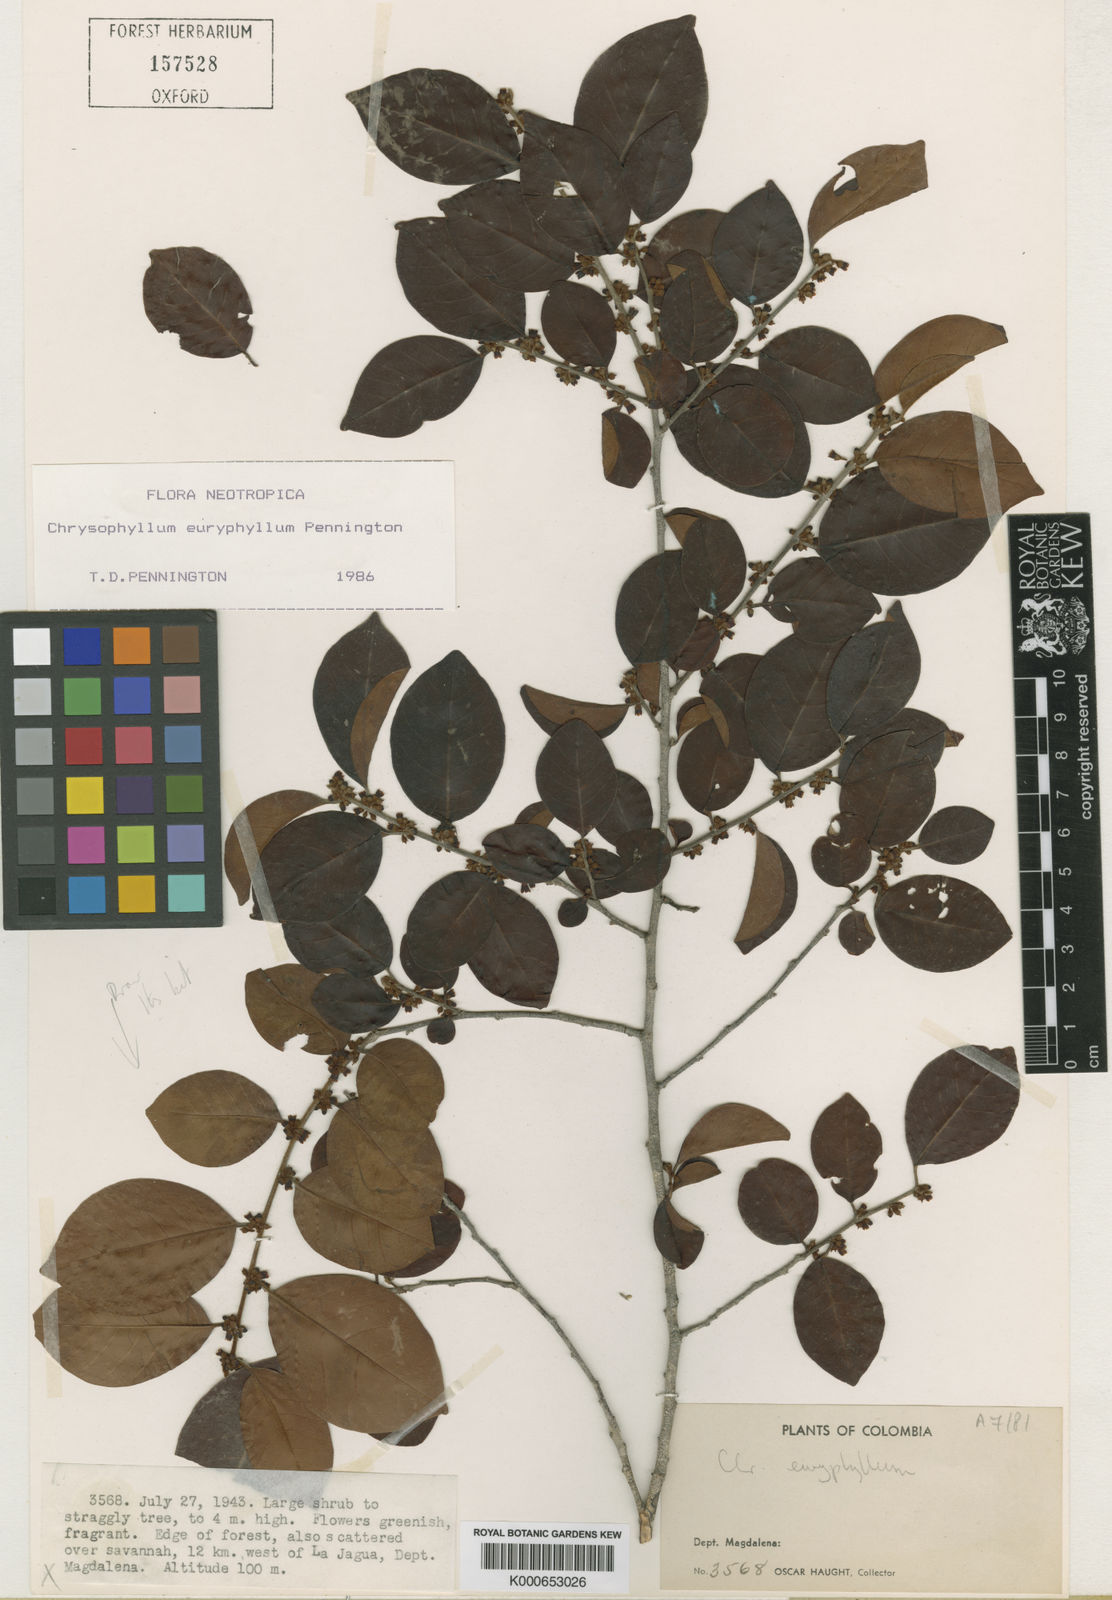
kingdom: Plantae
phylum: Tracheophyta
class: Magnoliopsida
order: Ericales
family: Sapotaceae
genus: Chrysophyllum
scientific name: Chrysophyllum euryphyllum
